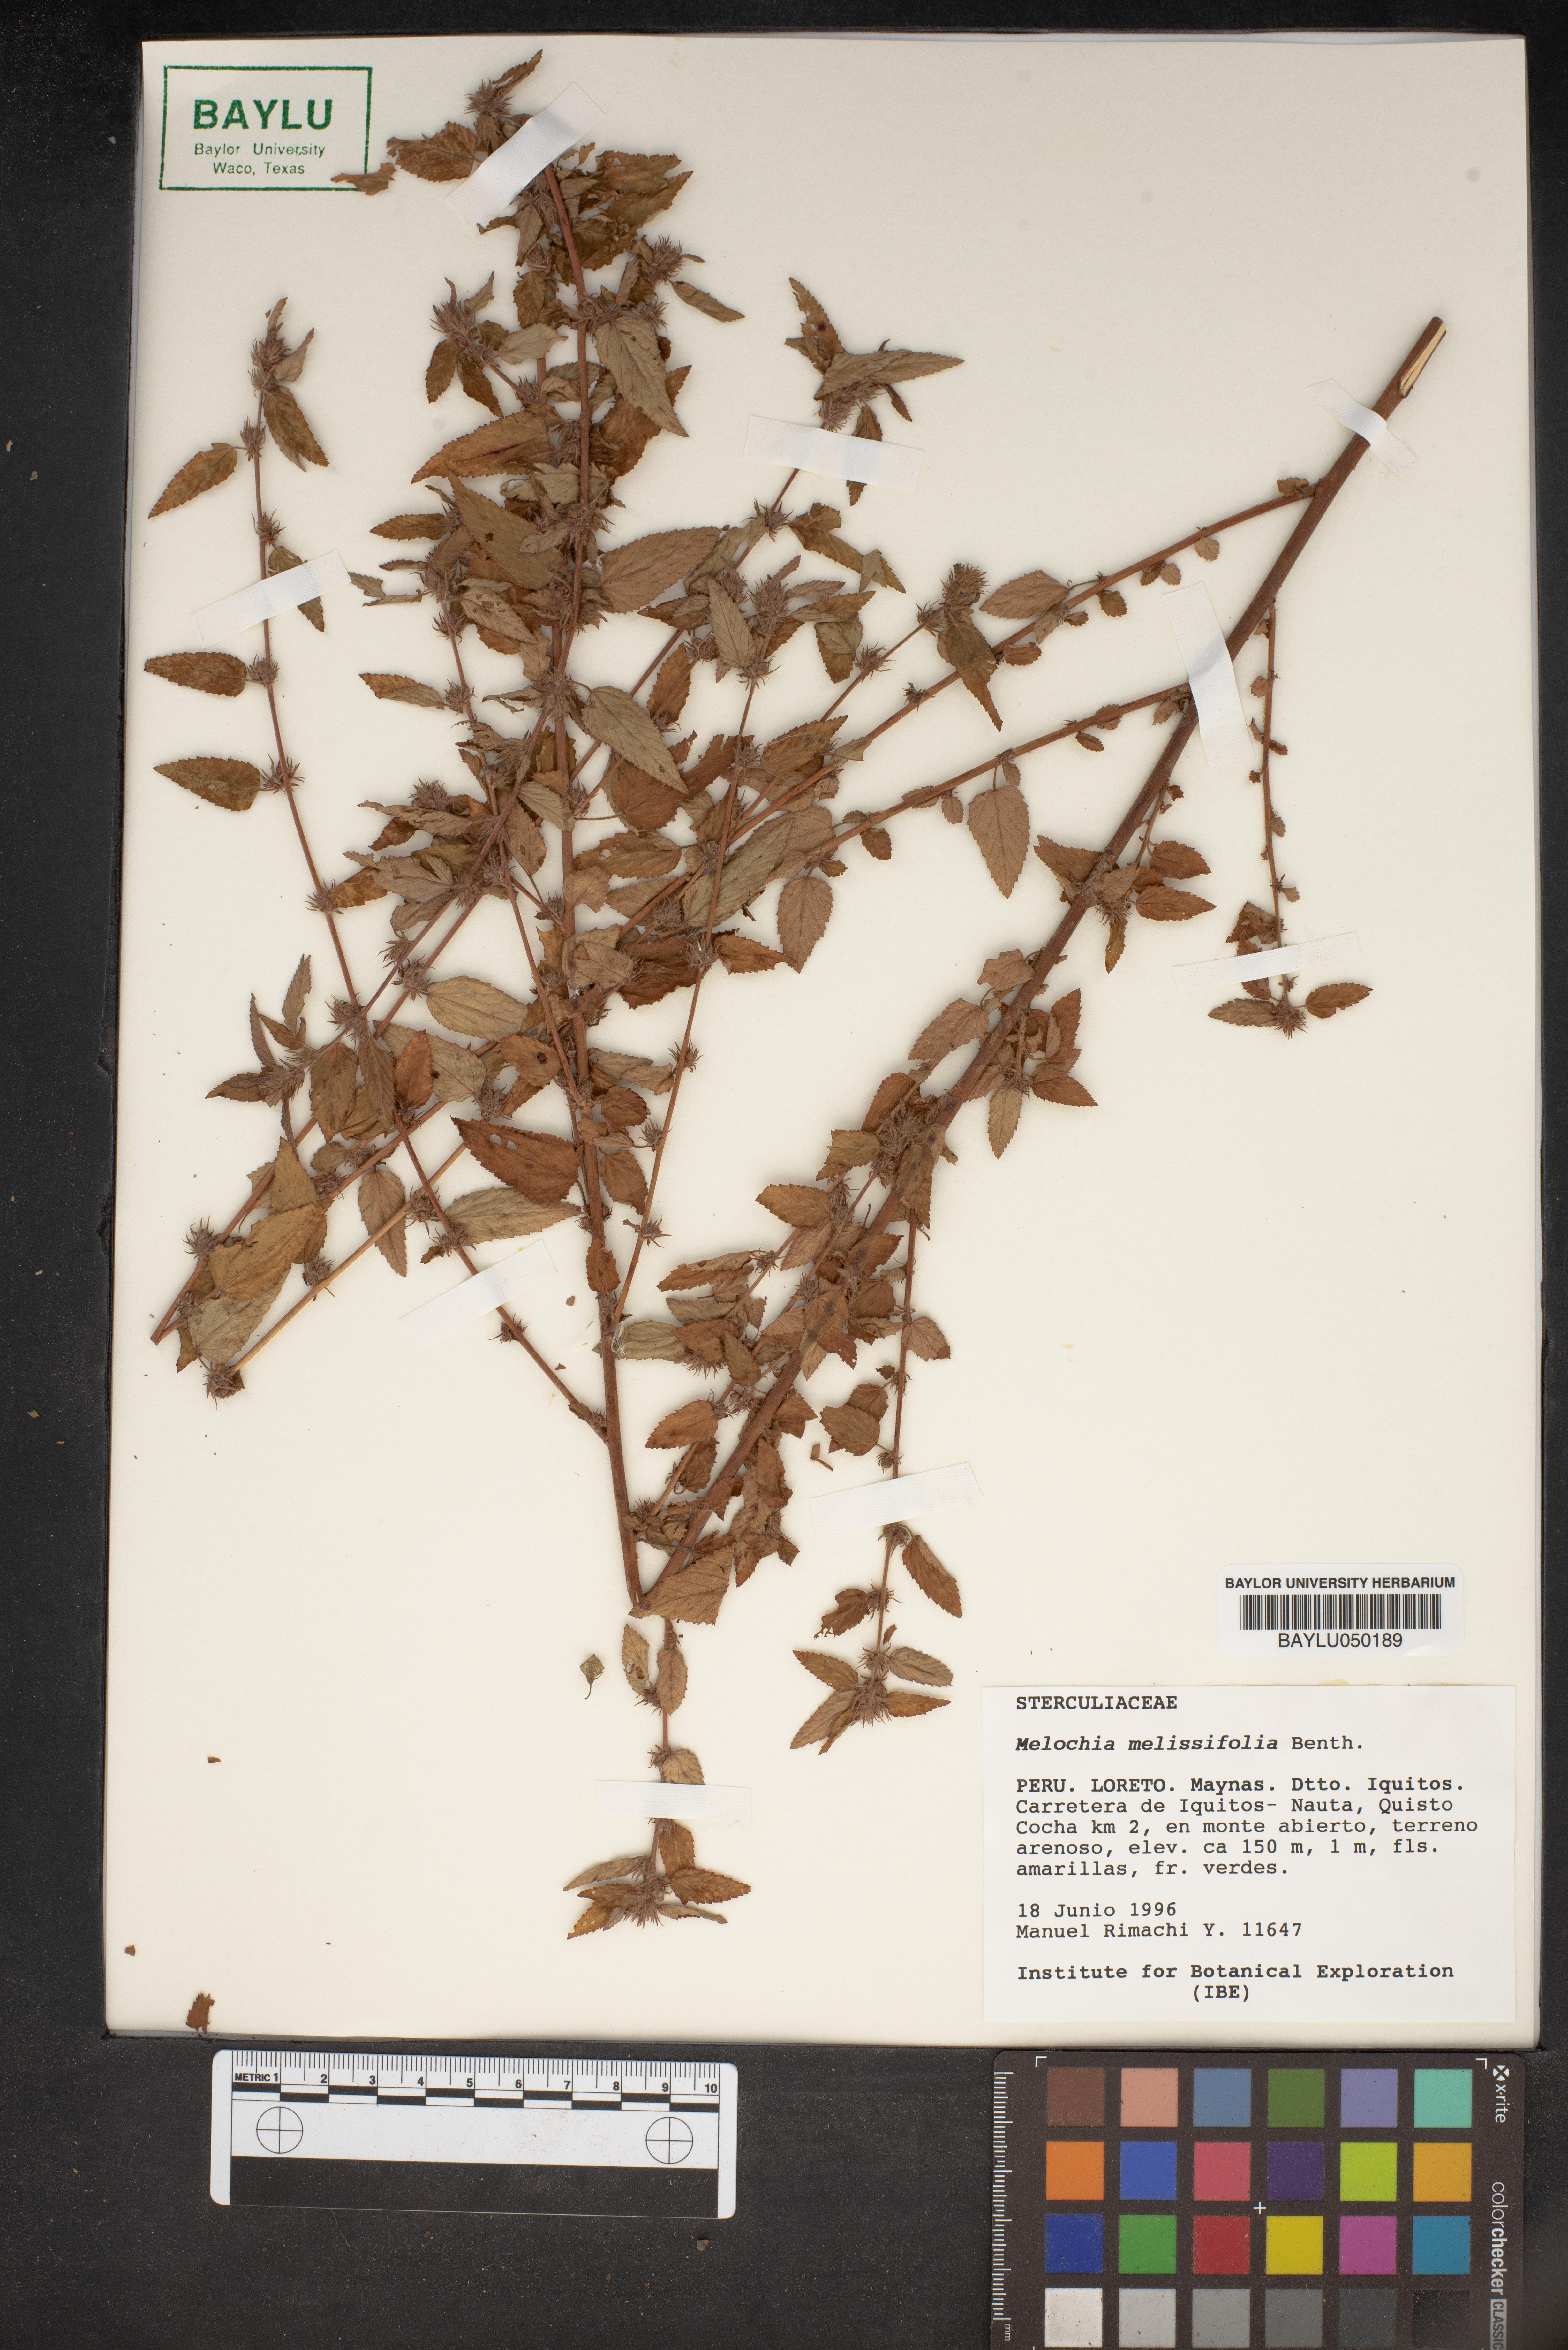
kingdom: Plantae
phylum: Tracheophyta
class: Magnoliopsida
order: Malvales
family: Malvaceae
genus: Melochia
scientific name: Melochia melissifolia
